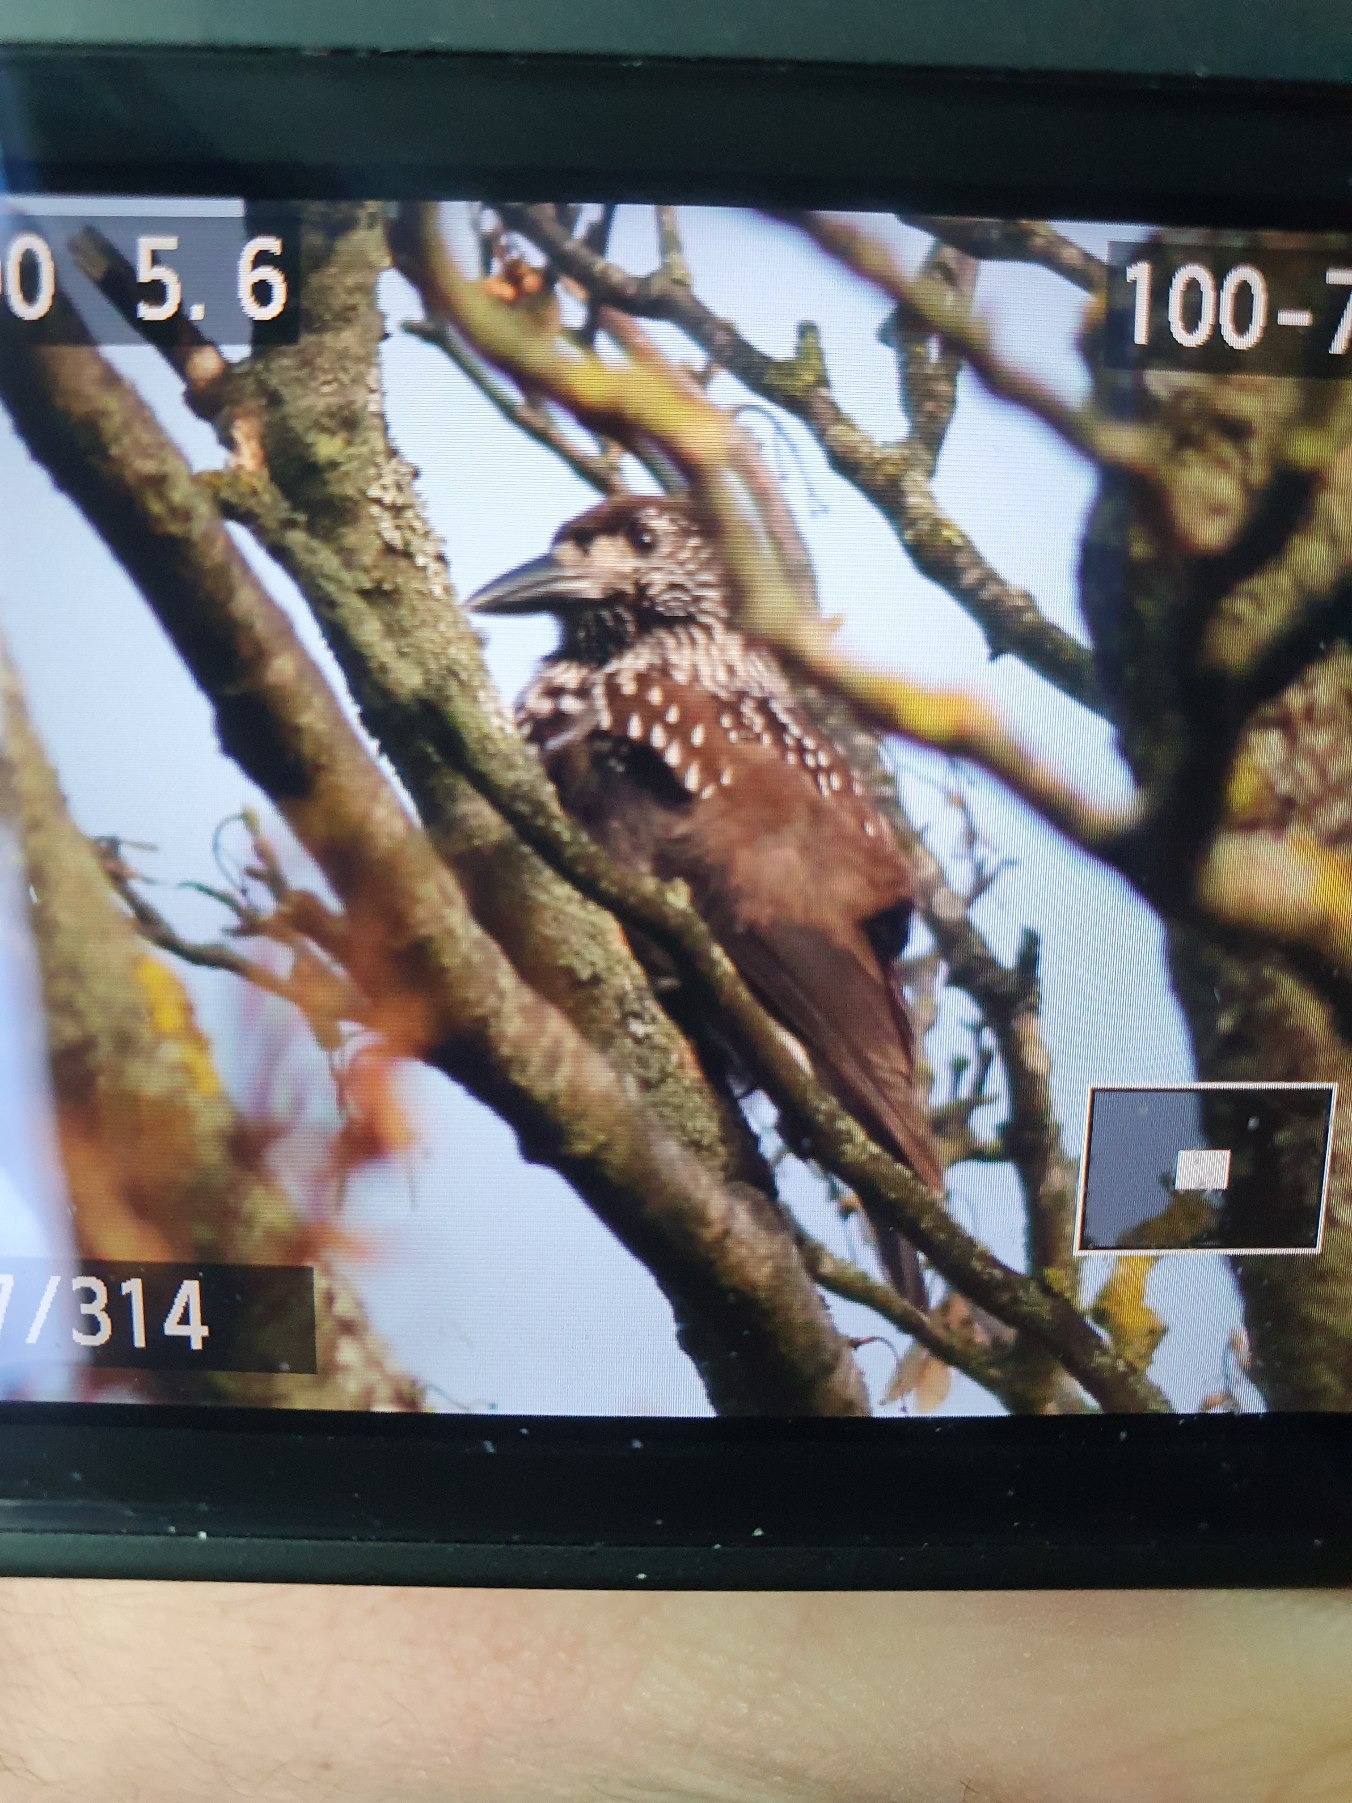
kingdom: Animalia
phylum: Chordata
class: Aves
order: Passeriformes
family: Corvidae
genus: Nucifraga
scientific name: Nucifraga caryocatactes
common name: Nøddekrige
